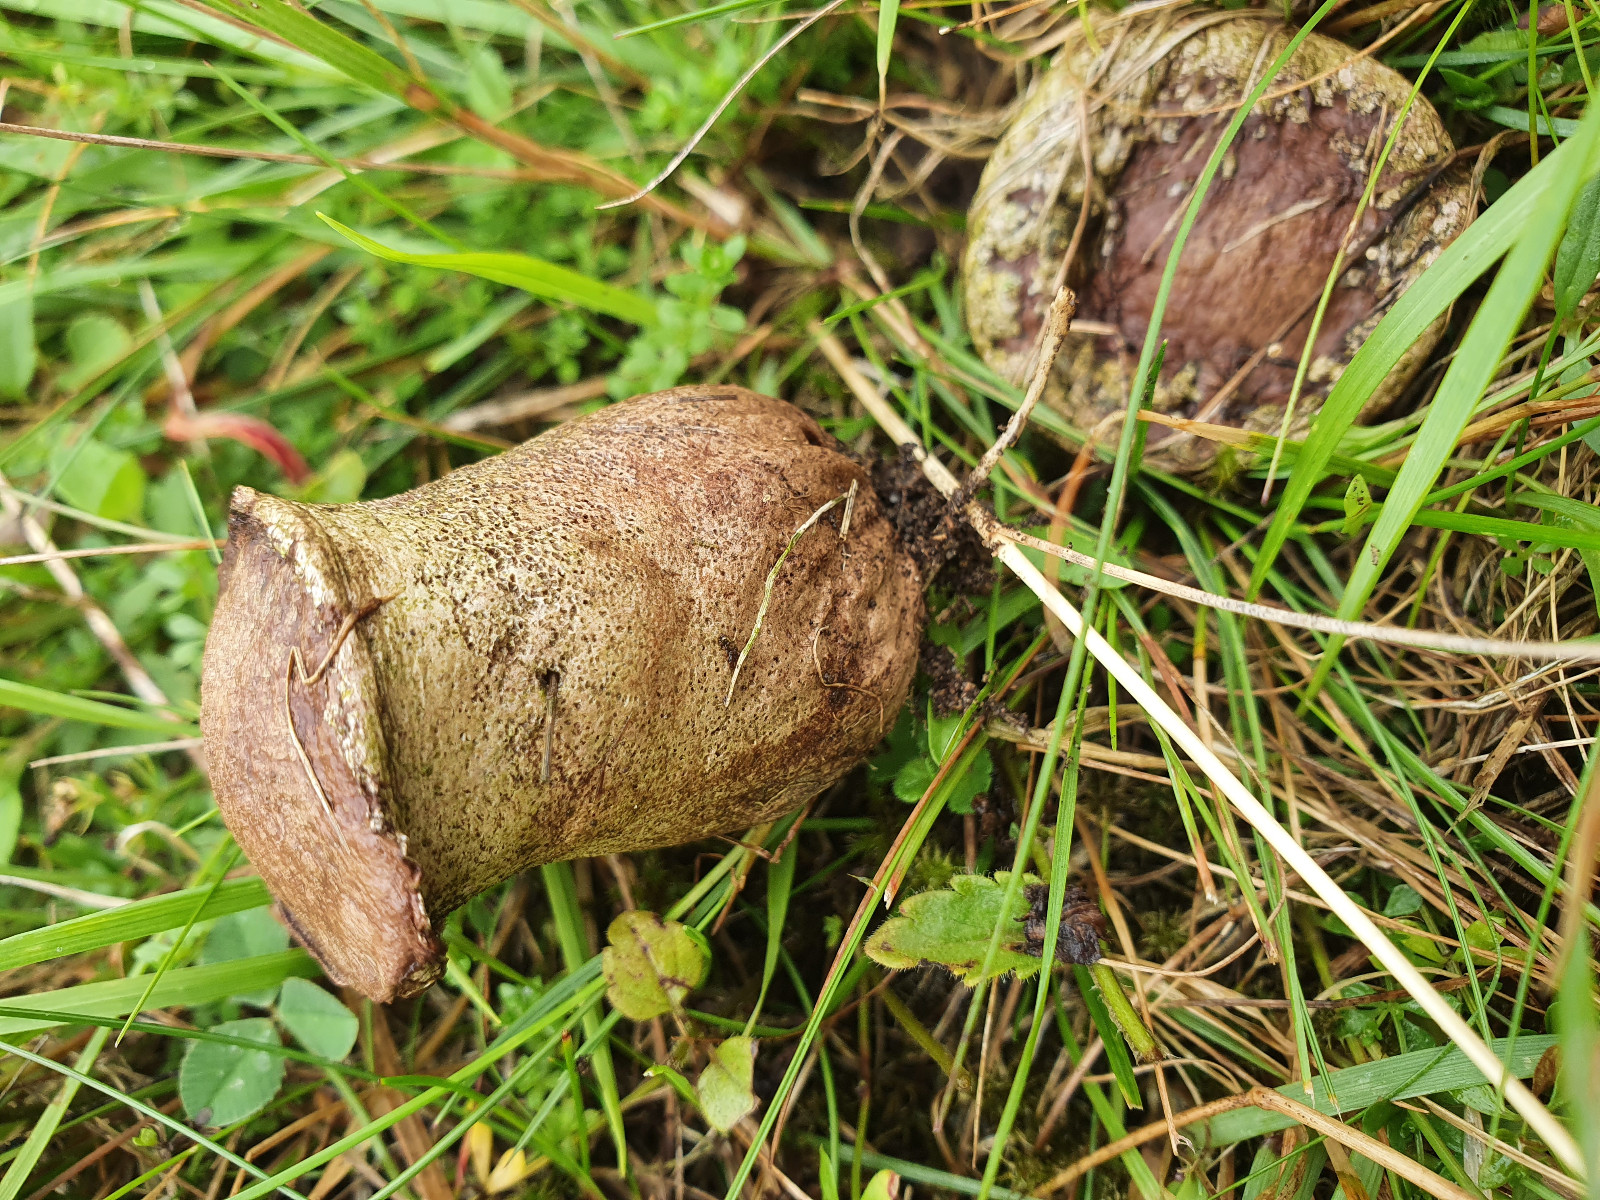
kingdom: Fungi
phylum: Basidiomycota
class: Agaricomycetes
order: Agaricales
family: Lycoperdaceae
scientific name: Lycoperdaceae
